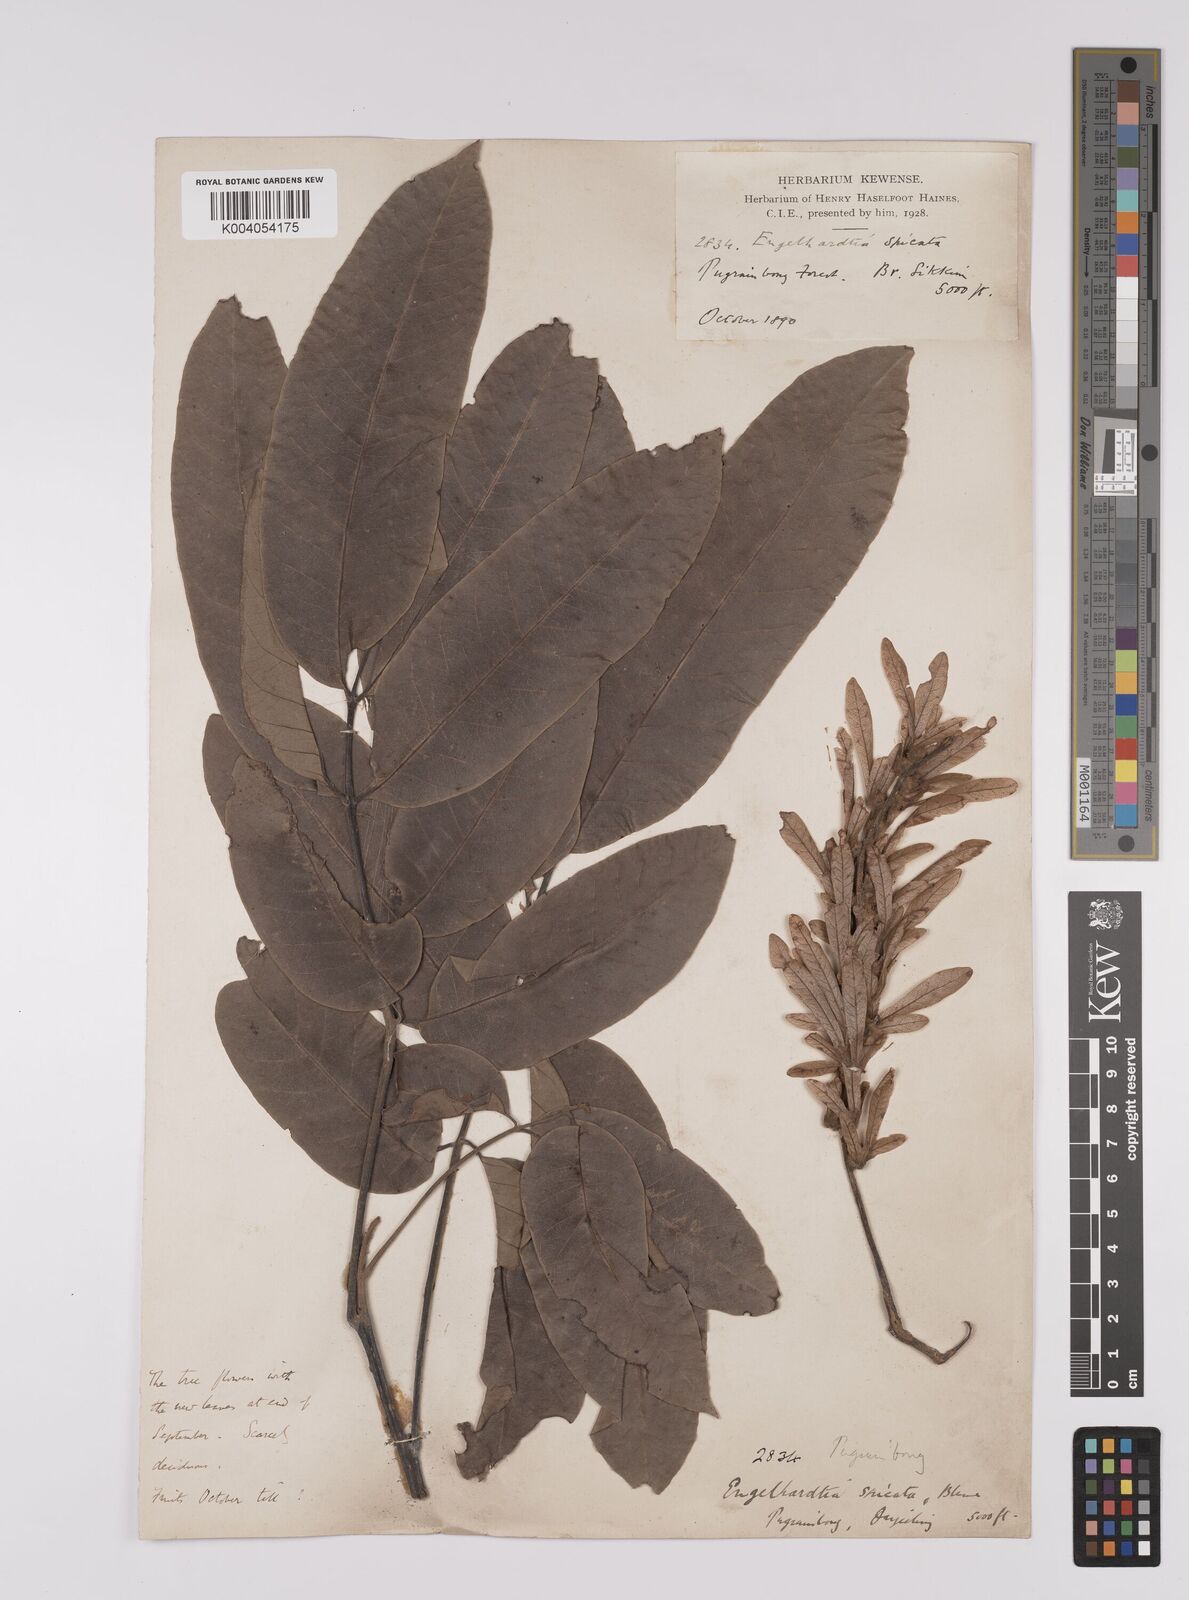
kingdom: Plantae
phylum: Tracheophyta
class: Magnoliopsida
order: Fagales
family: Juglandaceae
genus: Engelhardia
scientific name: Engelhardia spicata
